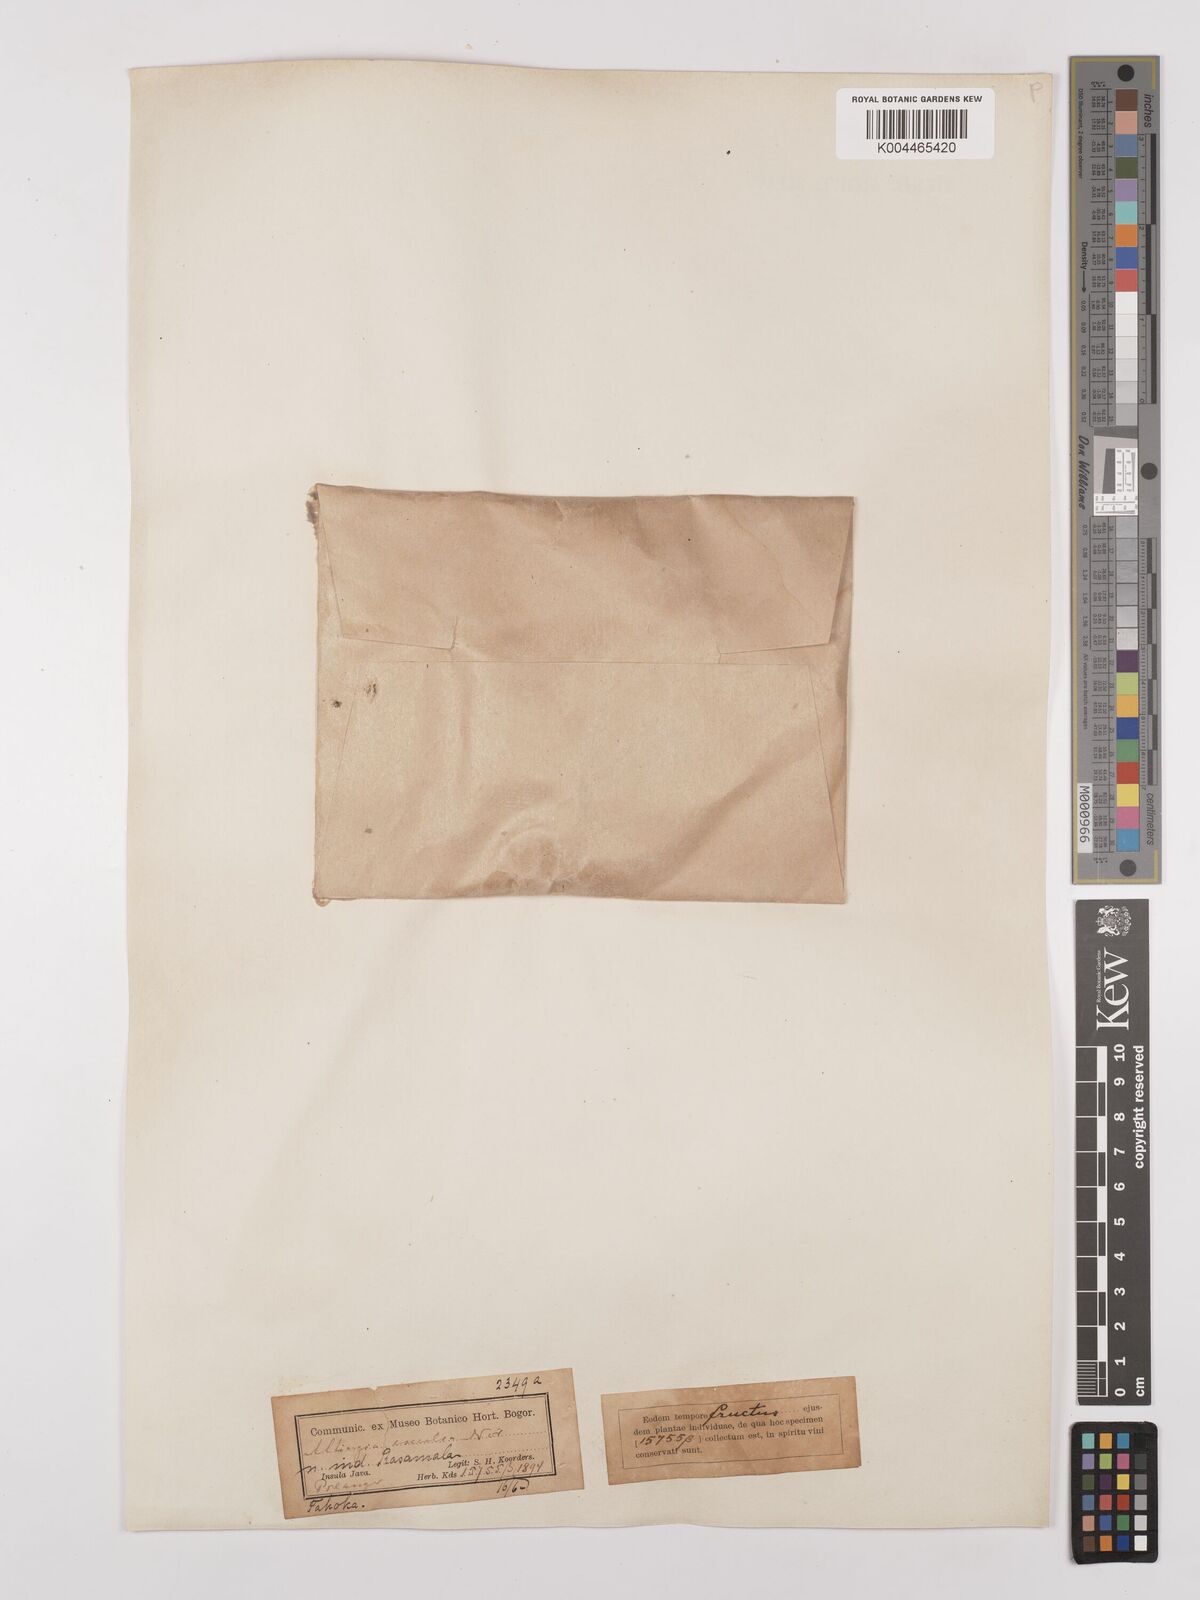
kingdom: Plantae
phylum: Tracheophyta
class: Magnoliopsida
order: Saxifragales
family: Altingiaceae
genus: Liquidambar
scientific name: Liquidambar excelsa
